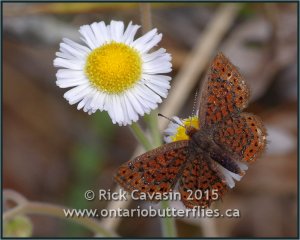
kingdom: Animalia
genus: Calephelis
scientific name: Calephelis virginiensis
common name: Little Metalmark
